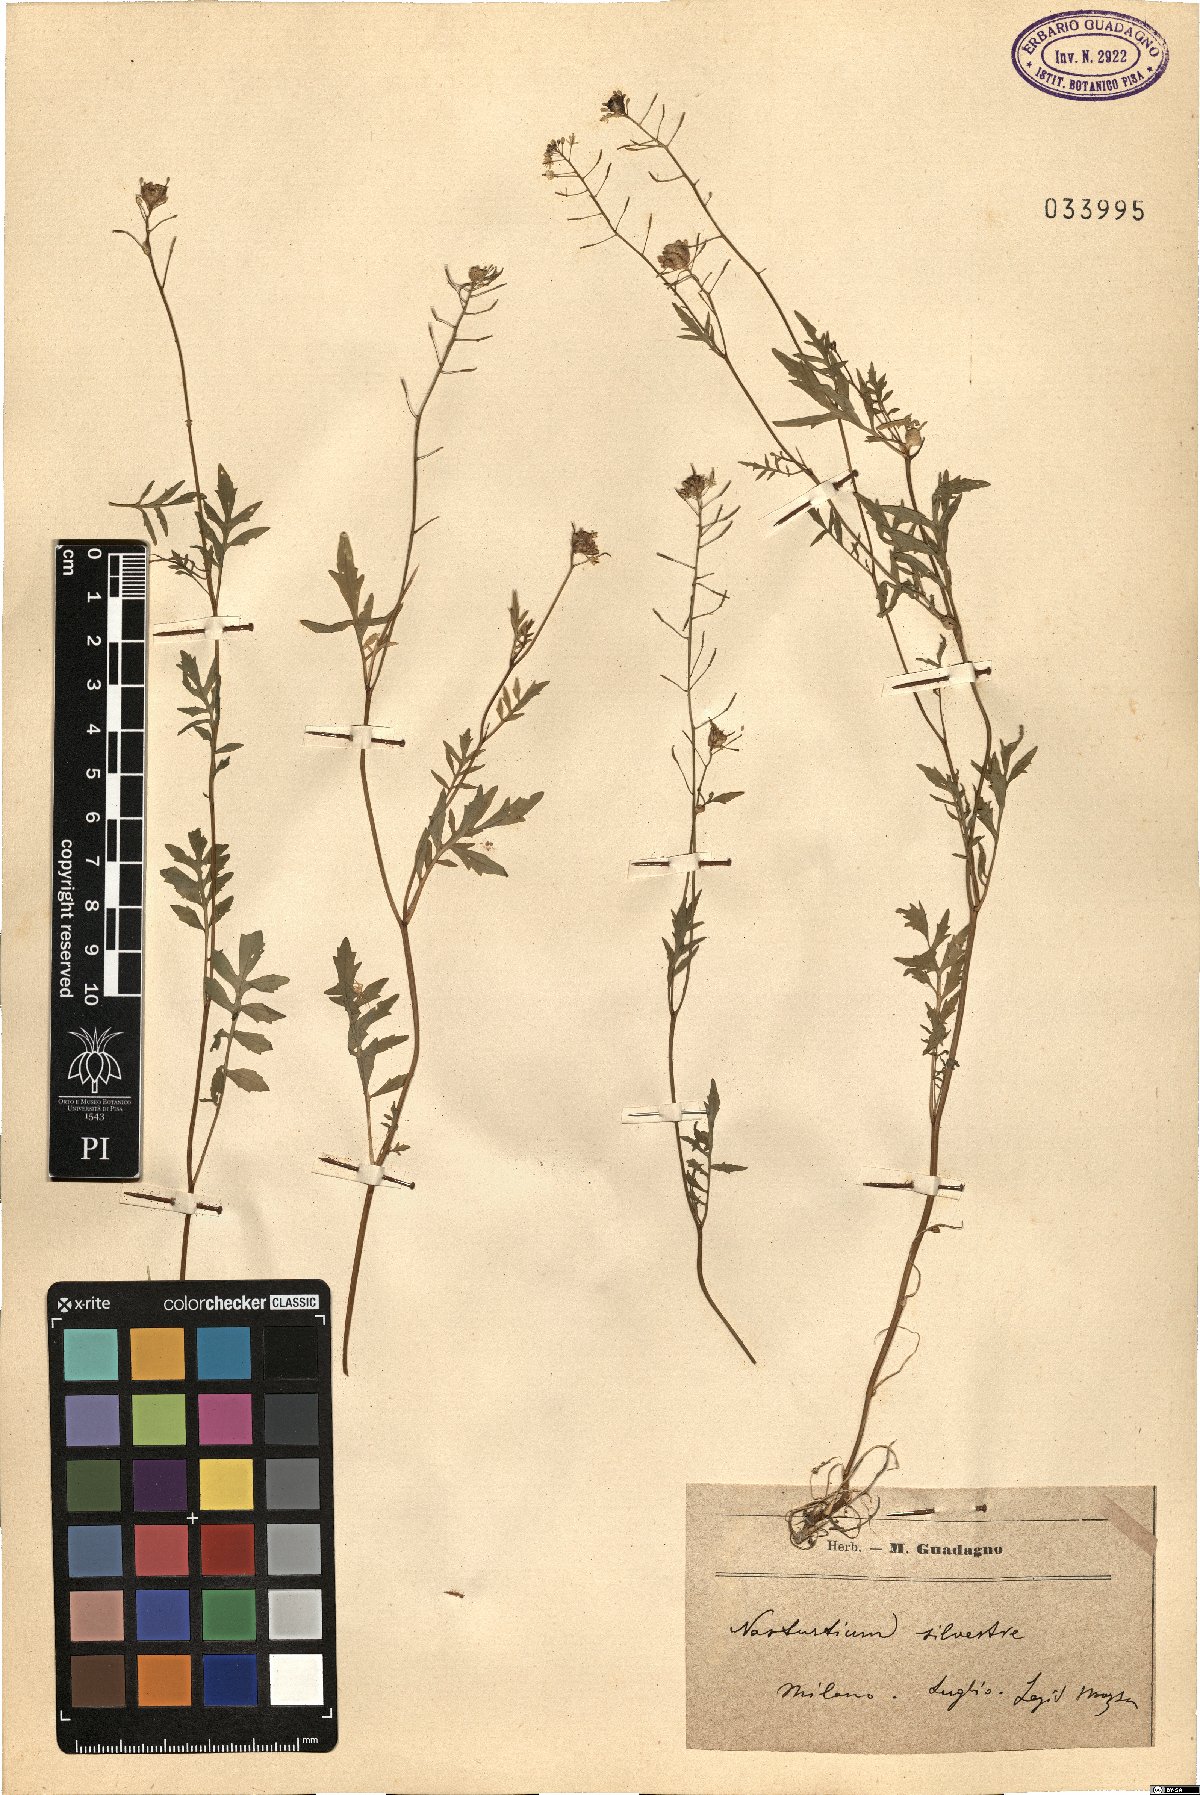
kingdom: Plantae
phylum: Tracheophyta
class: Magnoliopsida
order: Brassicales
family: Brassicaceae
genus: Rorippa
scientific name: Rorippa sylvestris
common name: Creeping yellowcress
